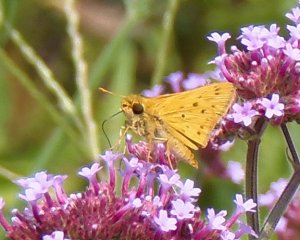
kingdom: Animalia
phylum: Arthropoda
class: Insecta
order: Lepidoptera
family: Hesperiidae
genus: Hylephila
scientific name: Hylephila phyleus
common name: Fiery Skipper
